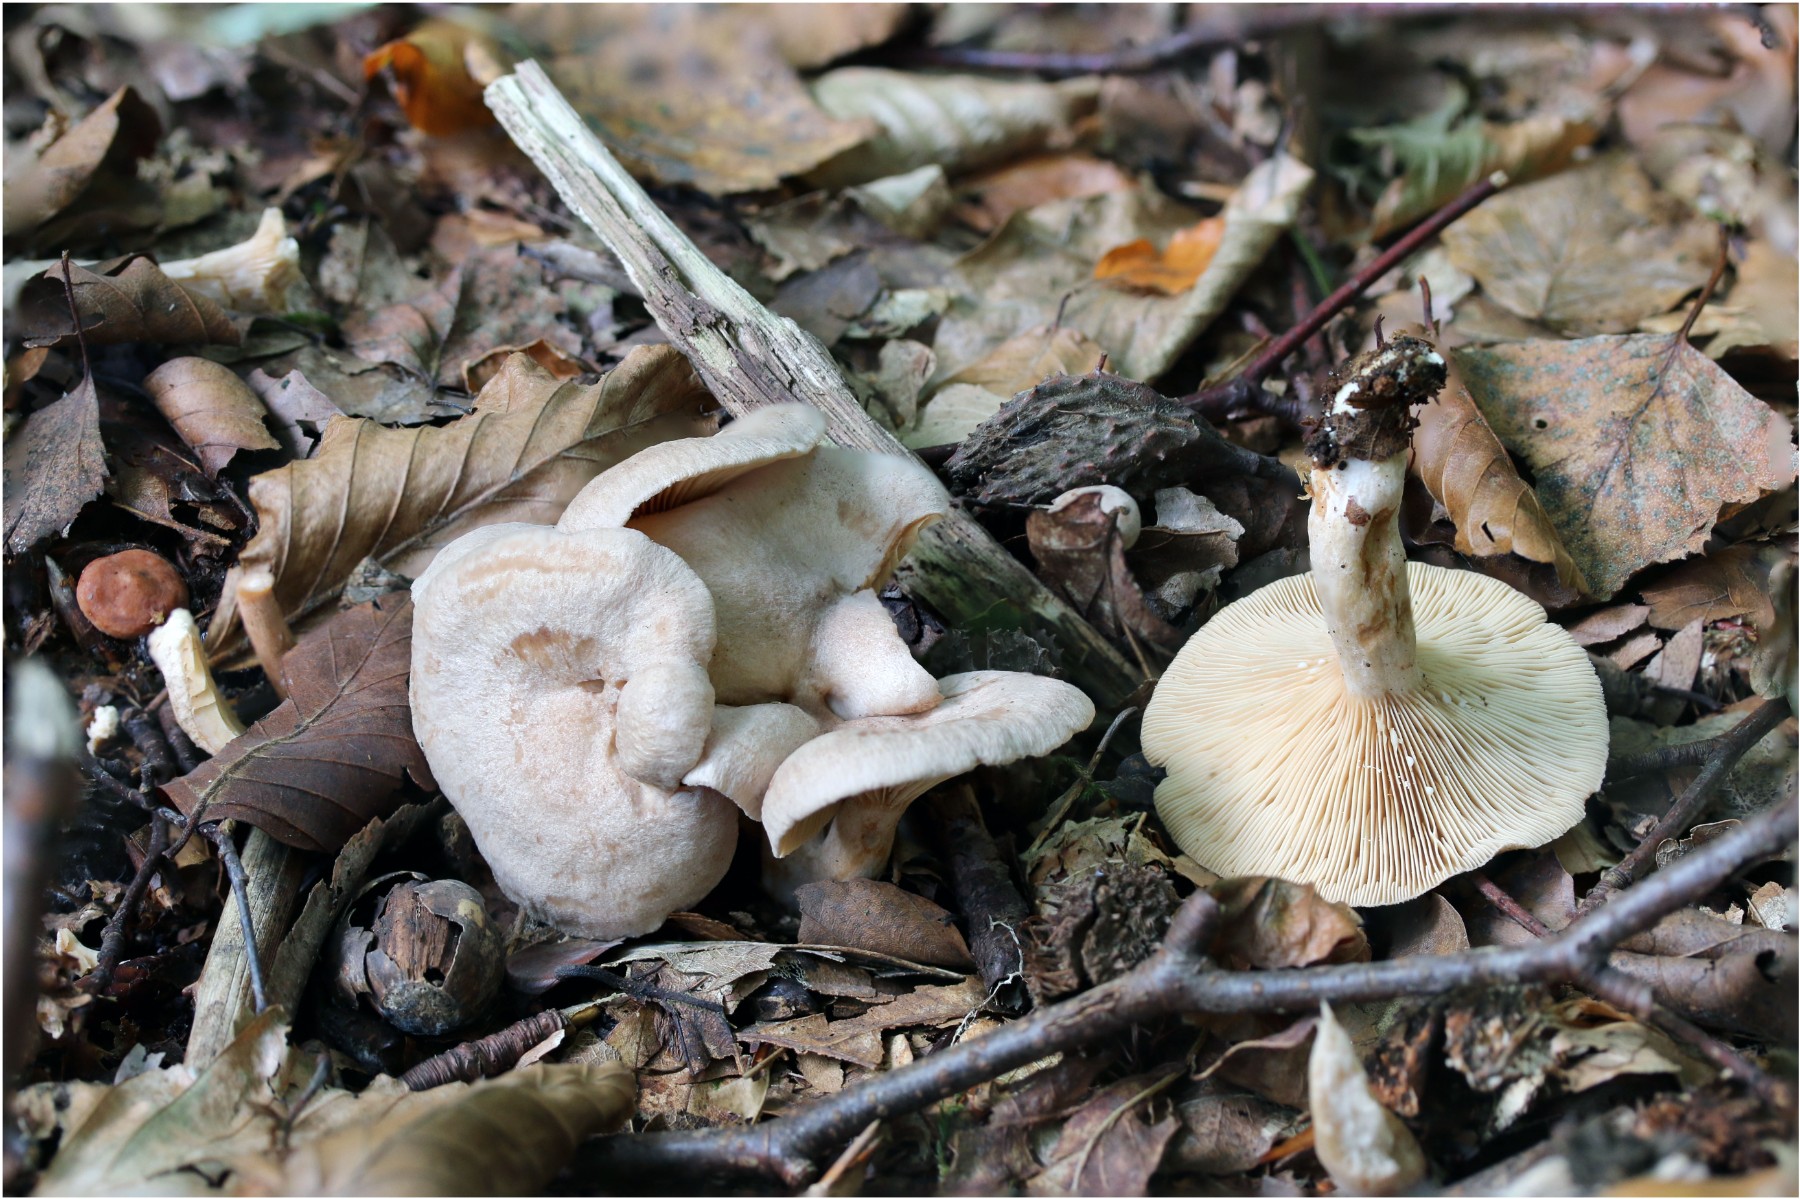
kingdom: Fungi
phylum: Basidiomycota
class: Agaricomycetes
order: Russulales
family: Russulaceae
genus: Lactarius
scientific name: Lactarius glyciosmus
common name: kokos-mælkehat
